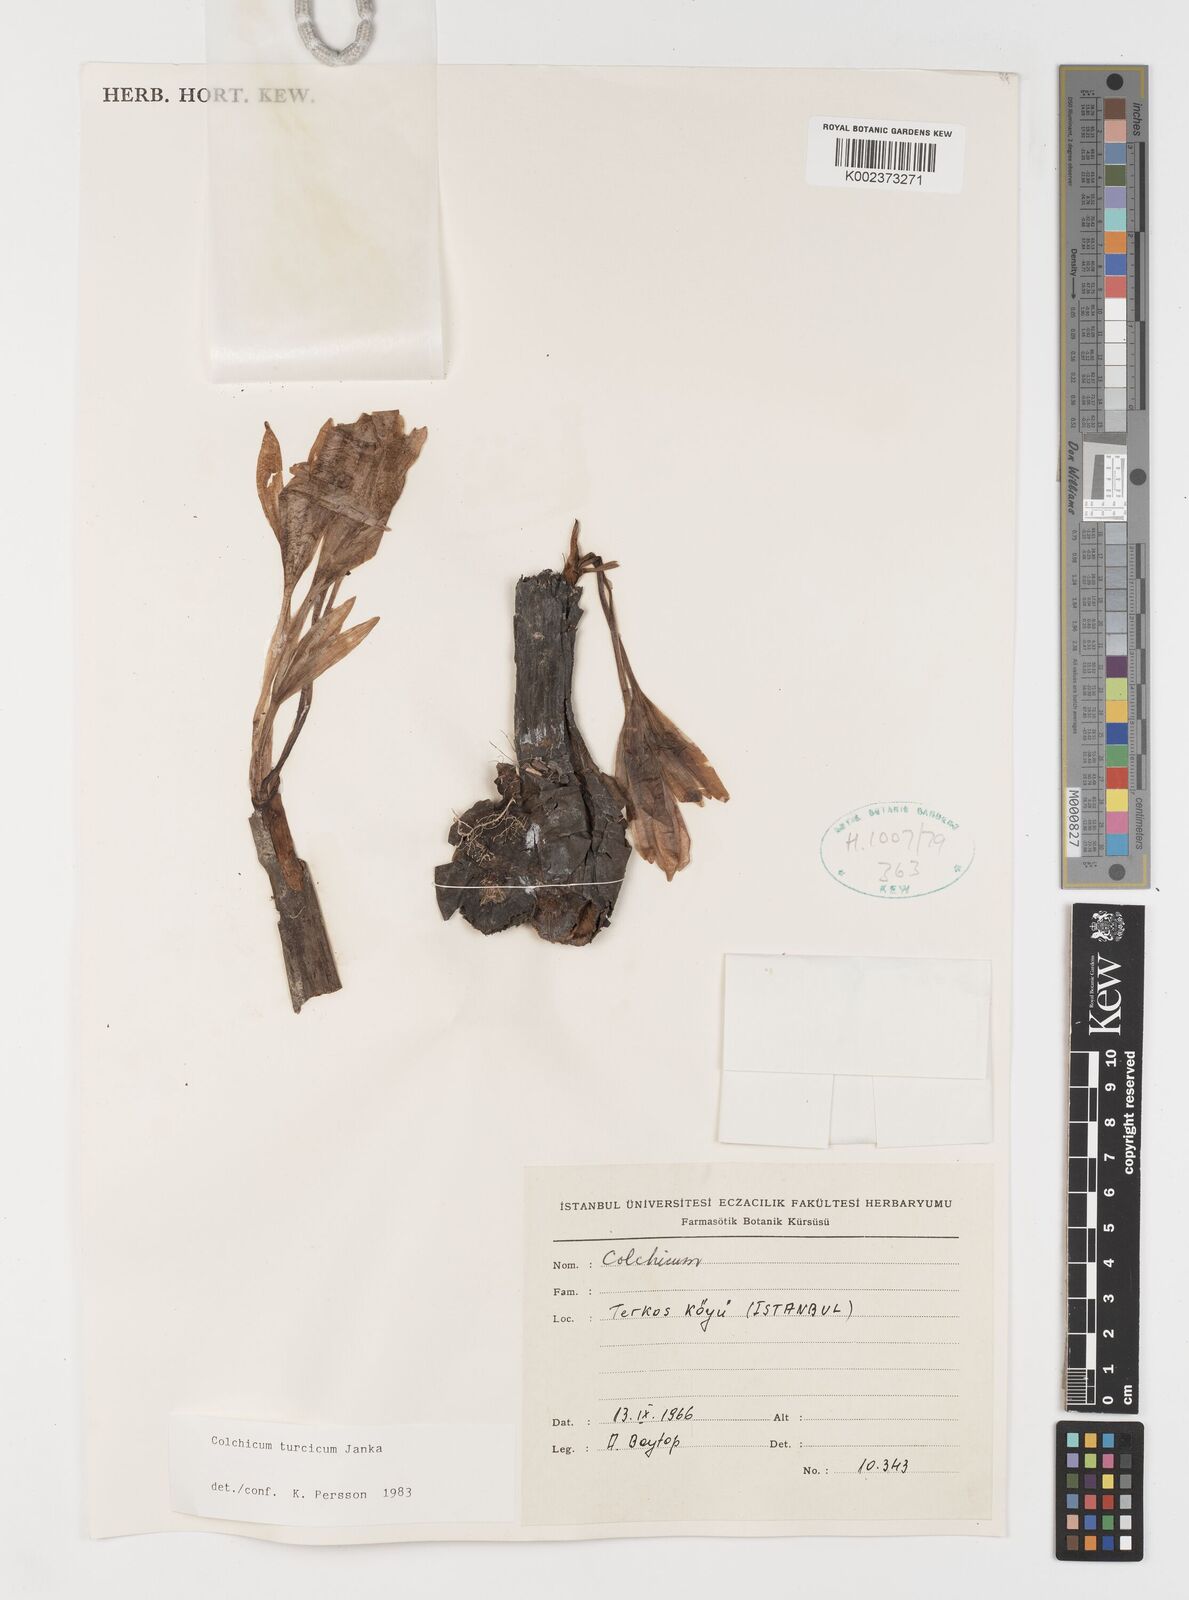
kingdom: Plantae
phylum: Tracheophyta
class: Liliopsida
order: Liliales
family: Colchicaceae
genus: Colchicum
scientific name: Colchicum turcicum
